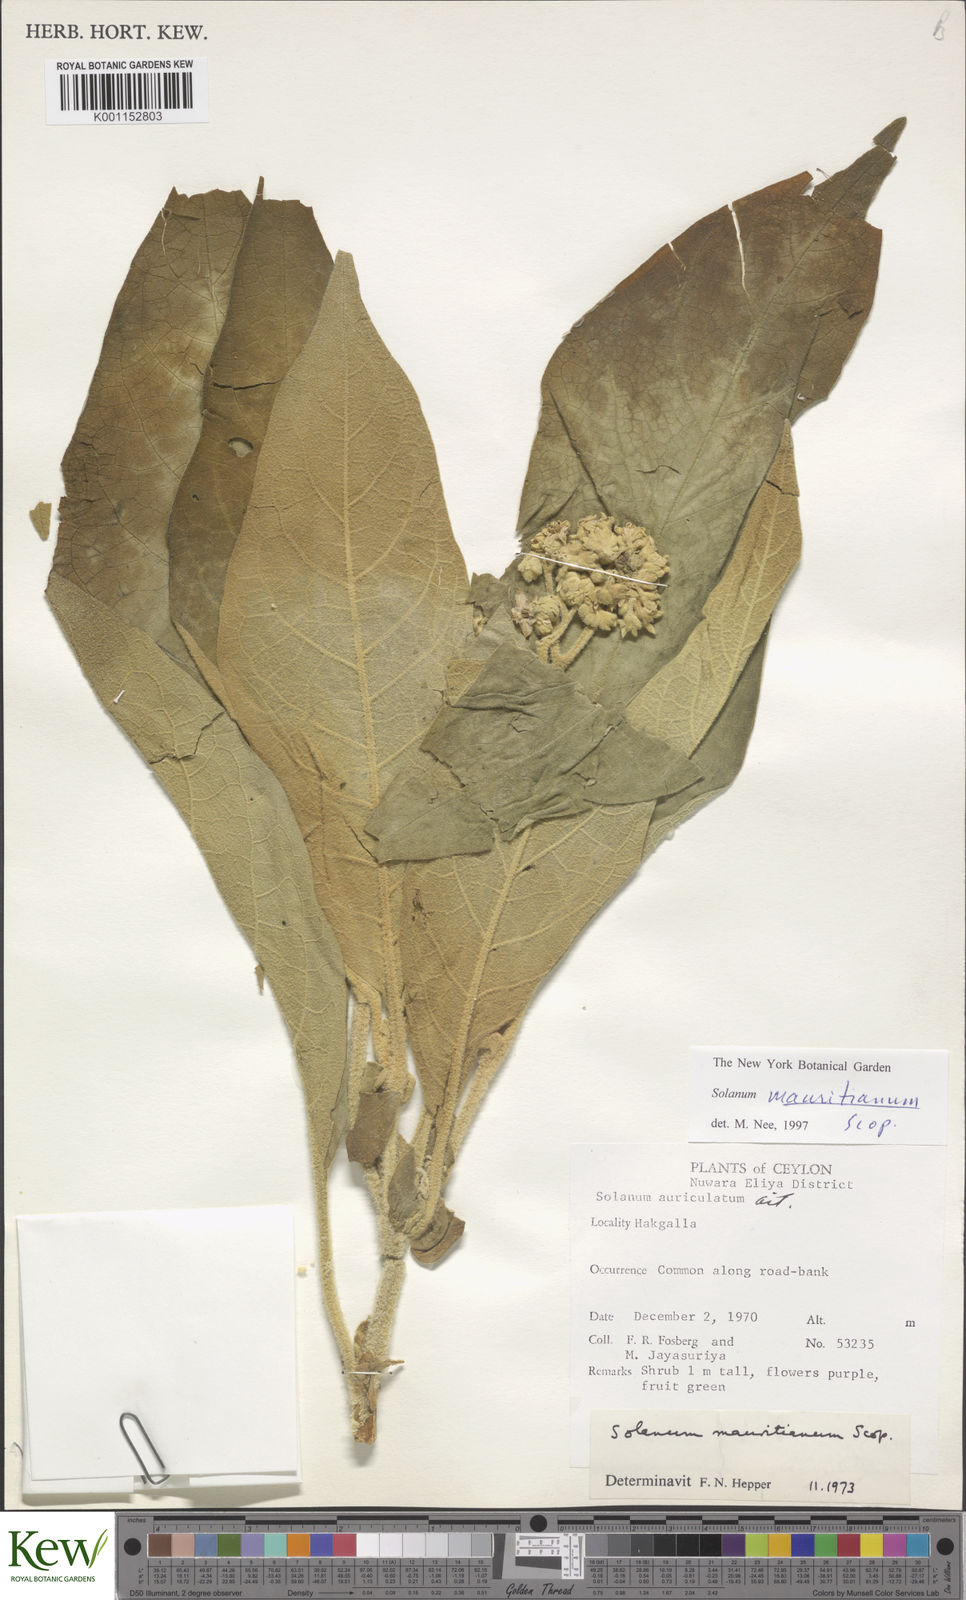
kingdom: Plantae
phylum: Tracheophyta
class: Magnoliopsida
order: Solanales
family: Solanaceae
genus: Solanum
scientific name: Solanum mauritianum
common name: Earleaf nightshade
